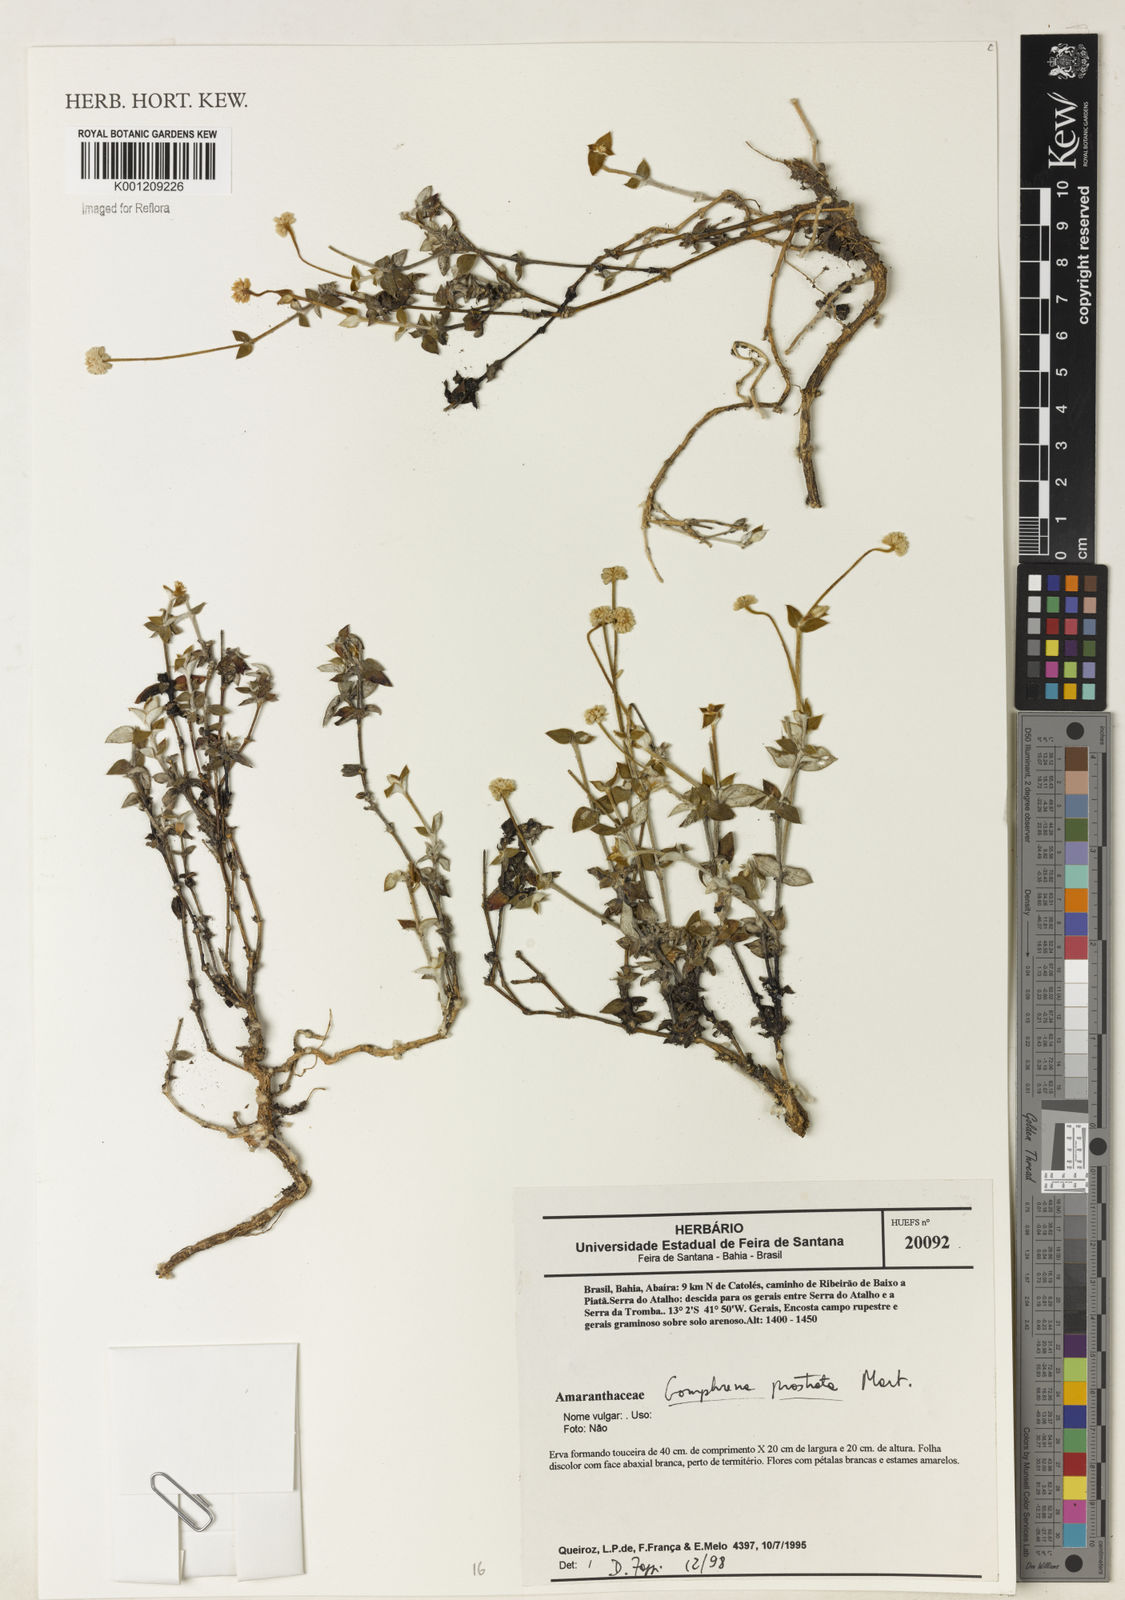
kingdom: Plantae
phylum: Tracheophyta
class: Magnoliopsida
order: Caryophyllales
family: Amaranthaceae
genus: Gomphrena
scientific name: Gomphrena prostrata
